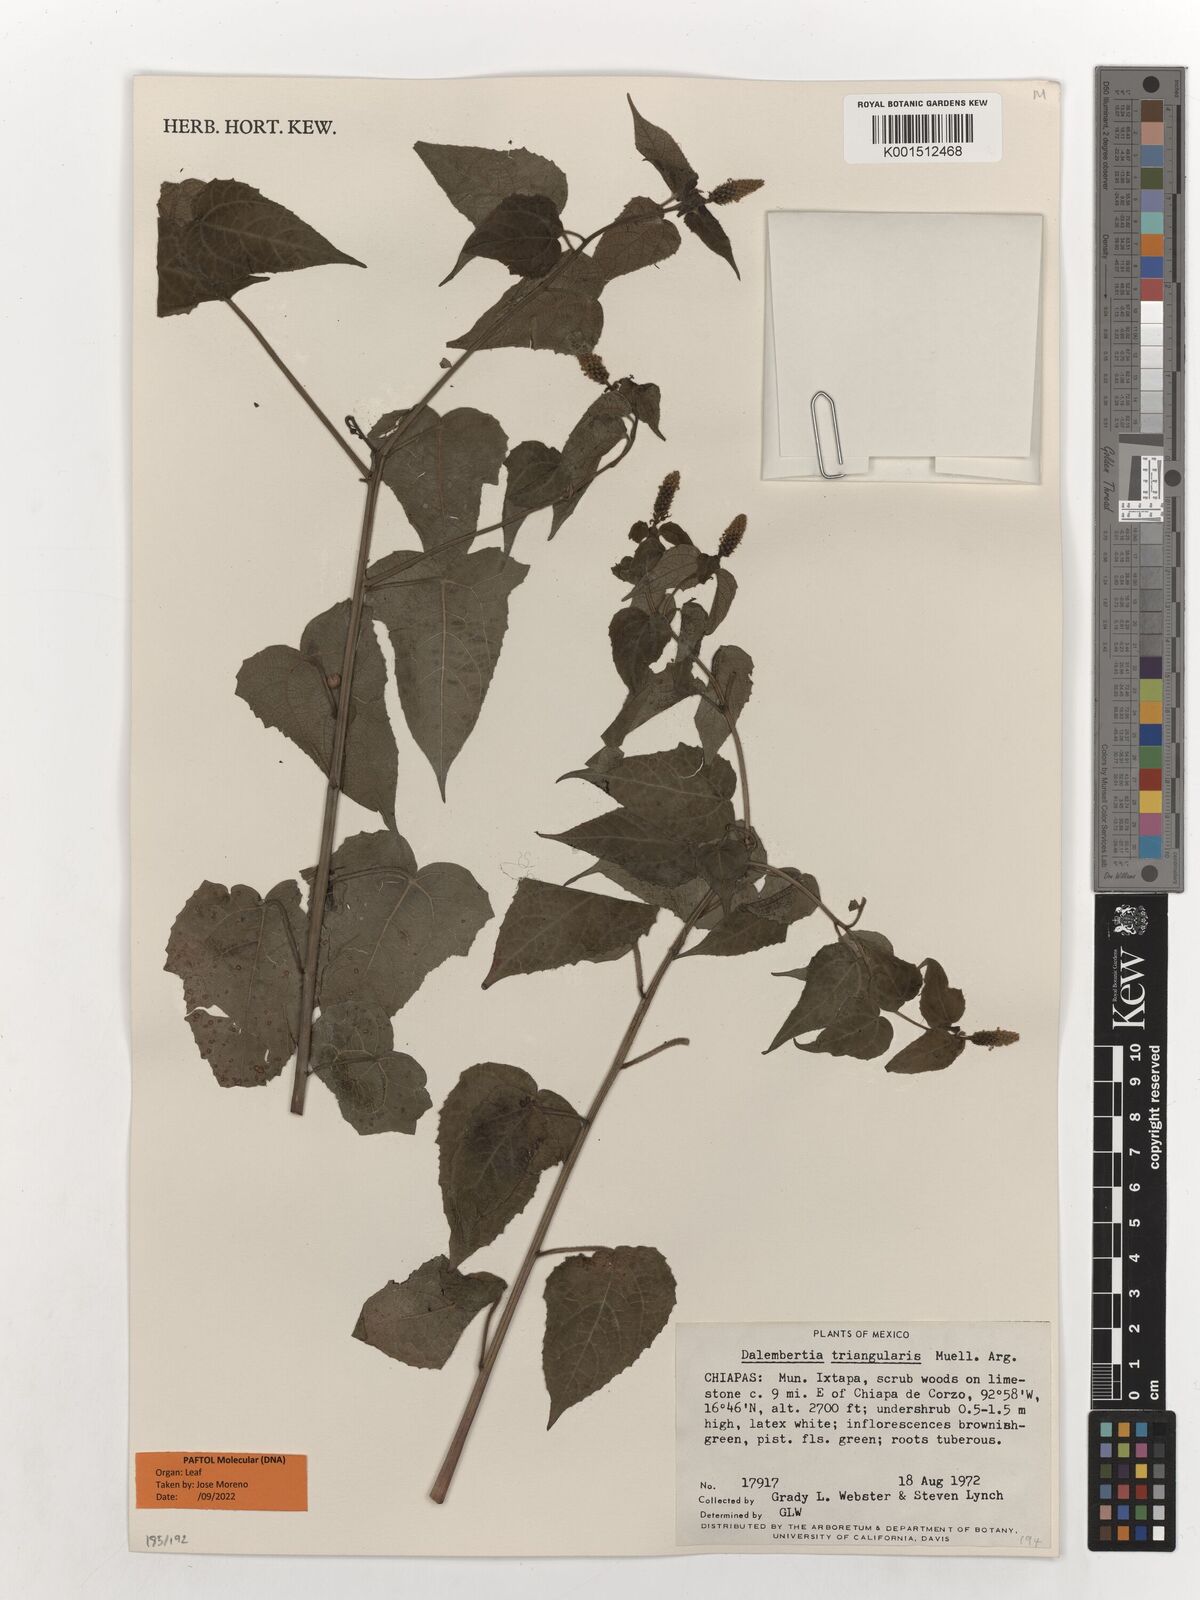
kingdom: Plantae
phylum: Tracheophyta
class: Magnoliopsida
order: Malpighiales
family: Euphorbiaceae
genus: Dalembertia
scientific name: Dalembertia triangularis
